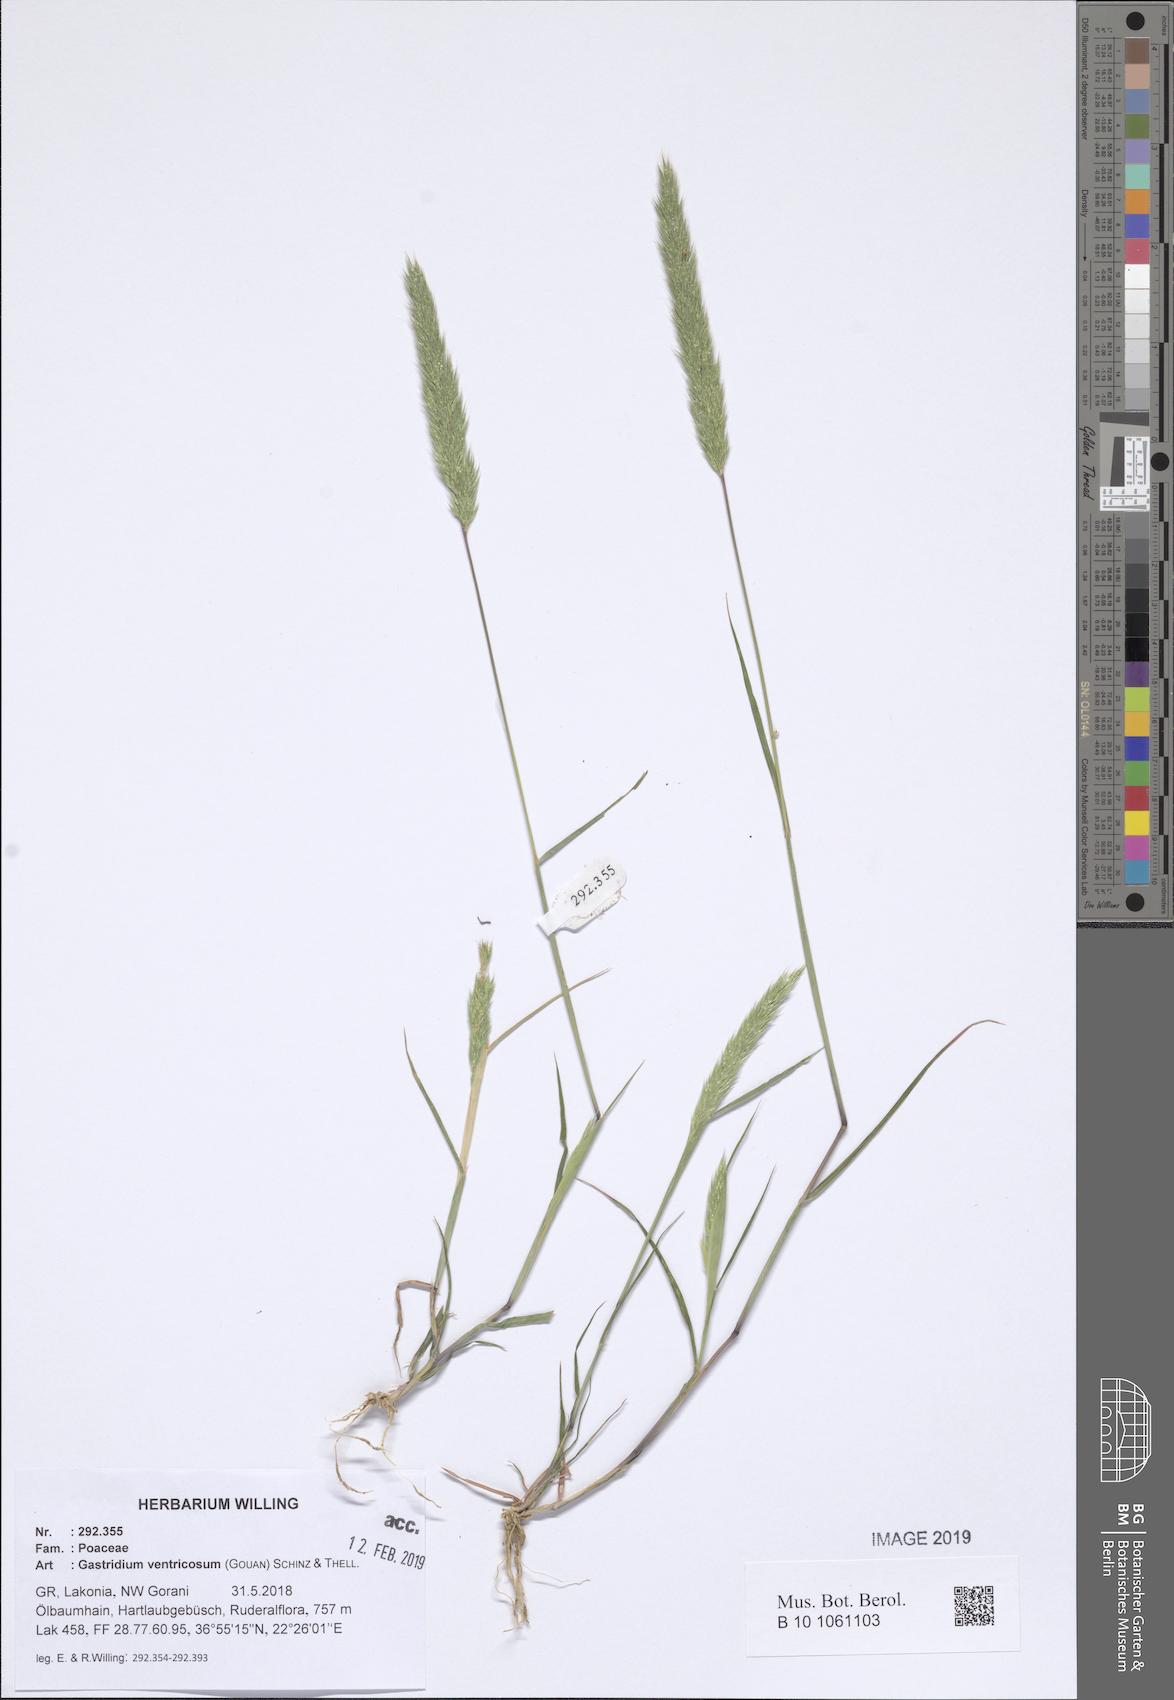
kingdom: Plantae
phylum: Tracheophyta
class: Liliopsida
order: Poales
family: Poaceae
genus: Gastridium
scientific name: Gastridium ventricosum
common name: Nit-grass
